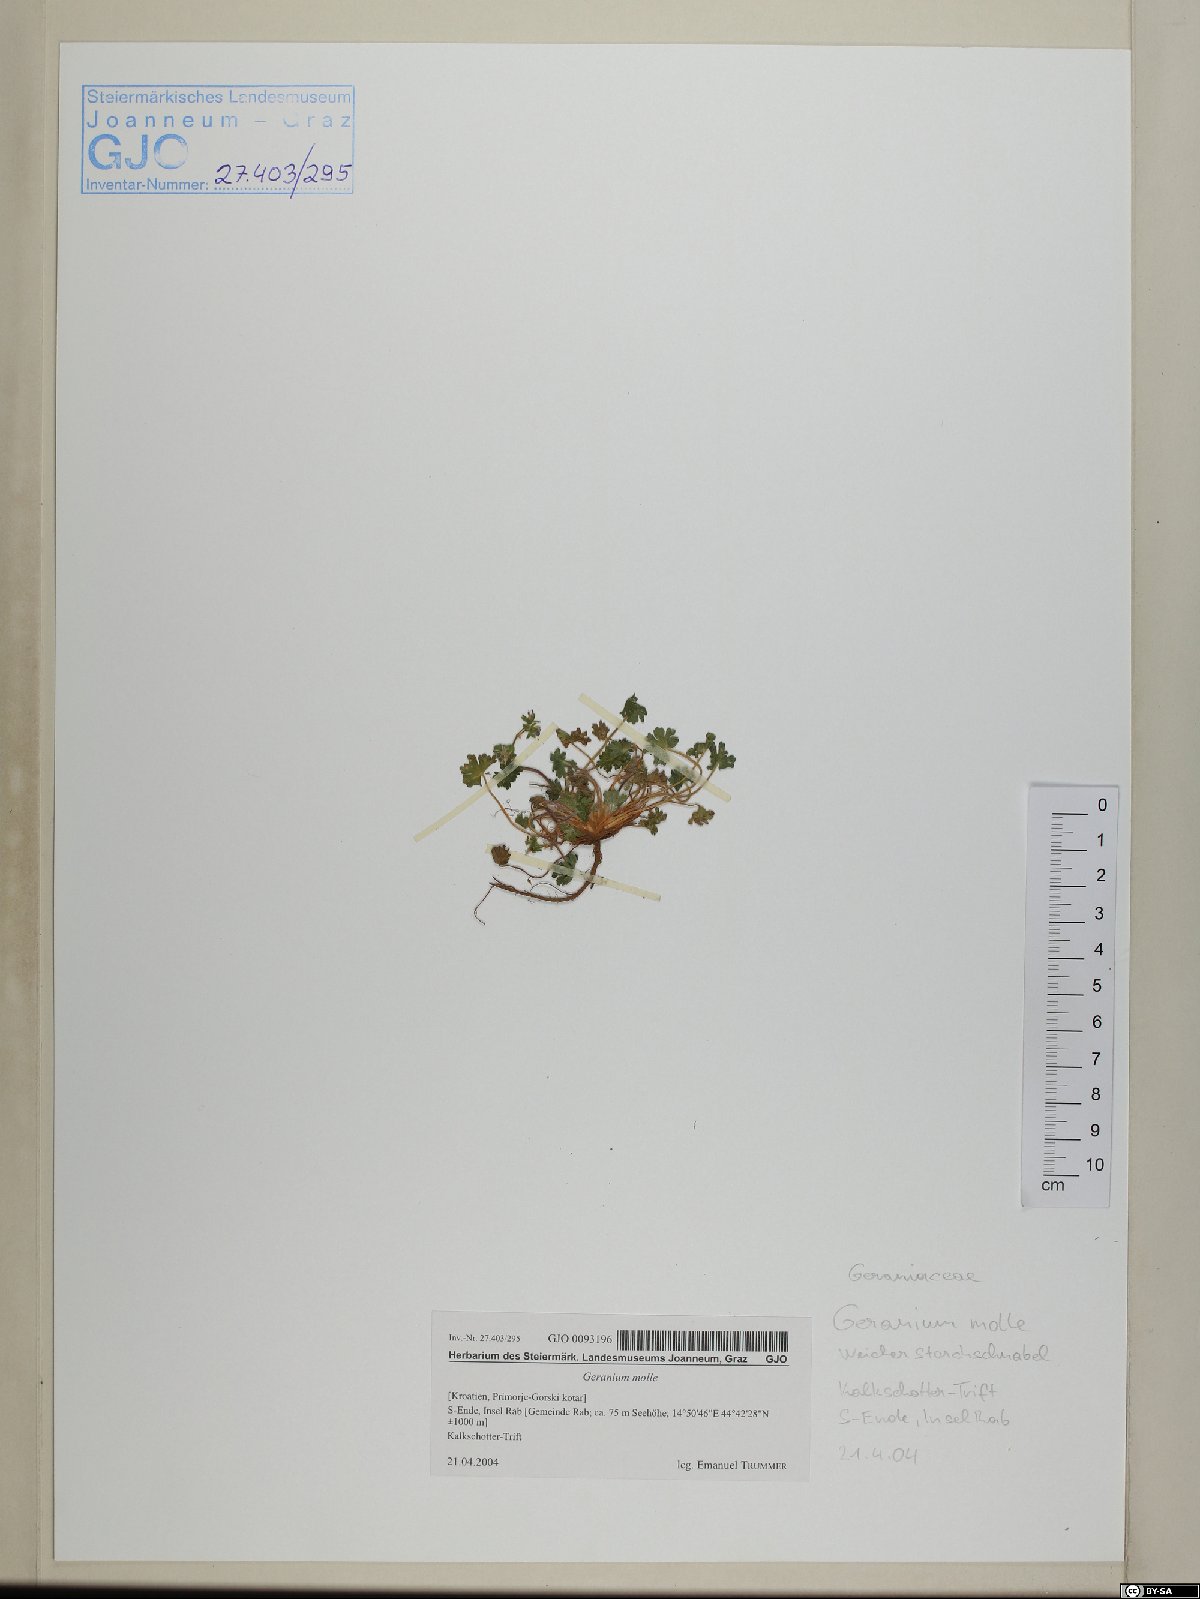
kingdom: Plantae
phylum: Tracheophyta
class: Magnoliopsida
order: Geraniales
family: Geraniaceae
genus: Geranium
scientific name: Geranium molle
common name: Dove's-foot crane's-bill
